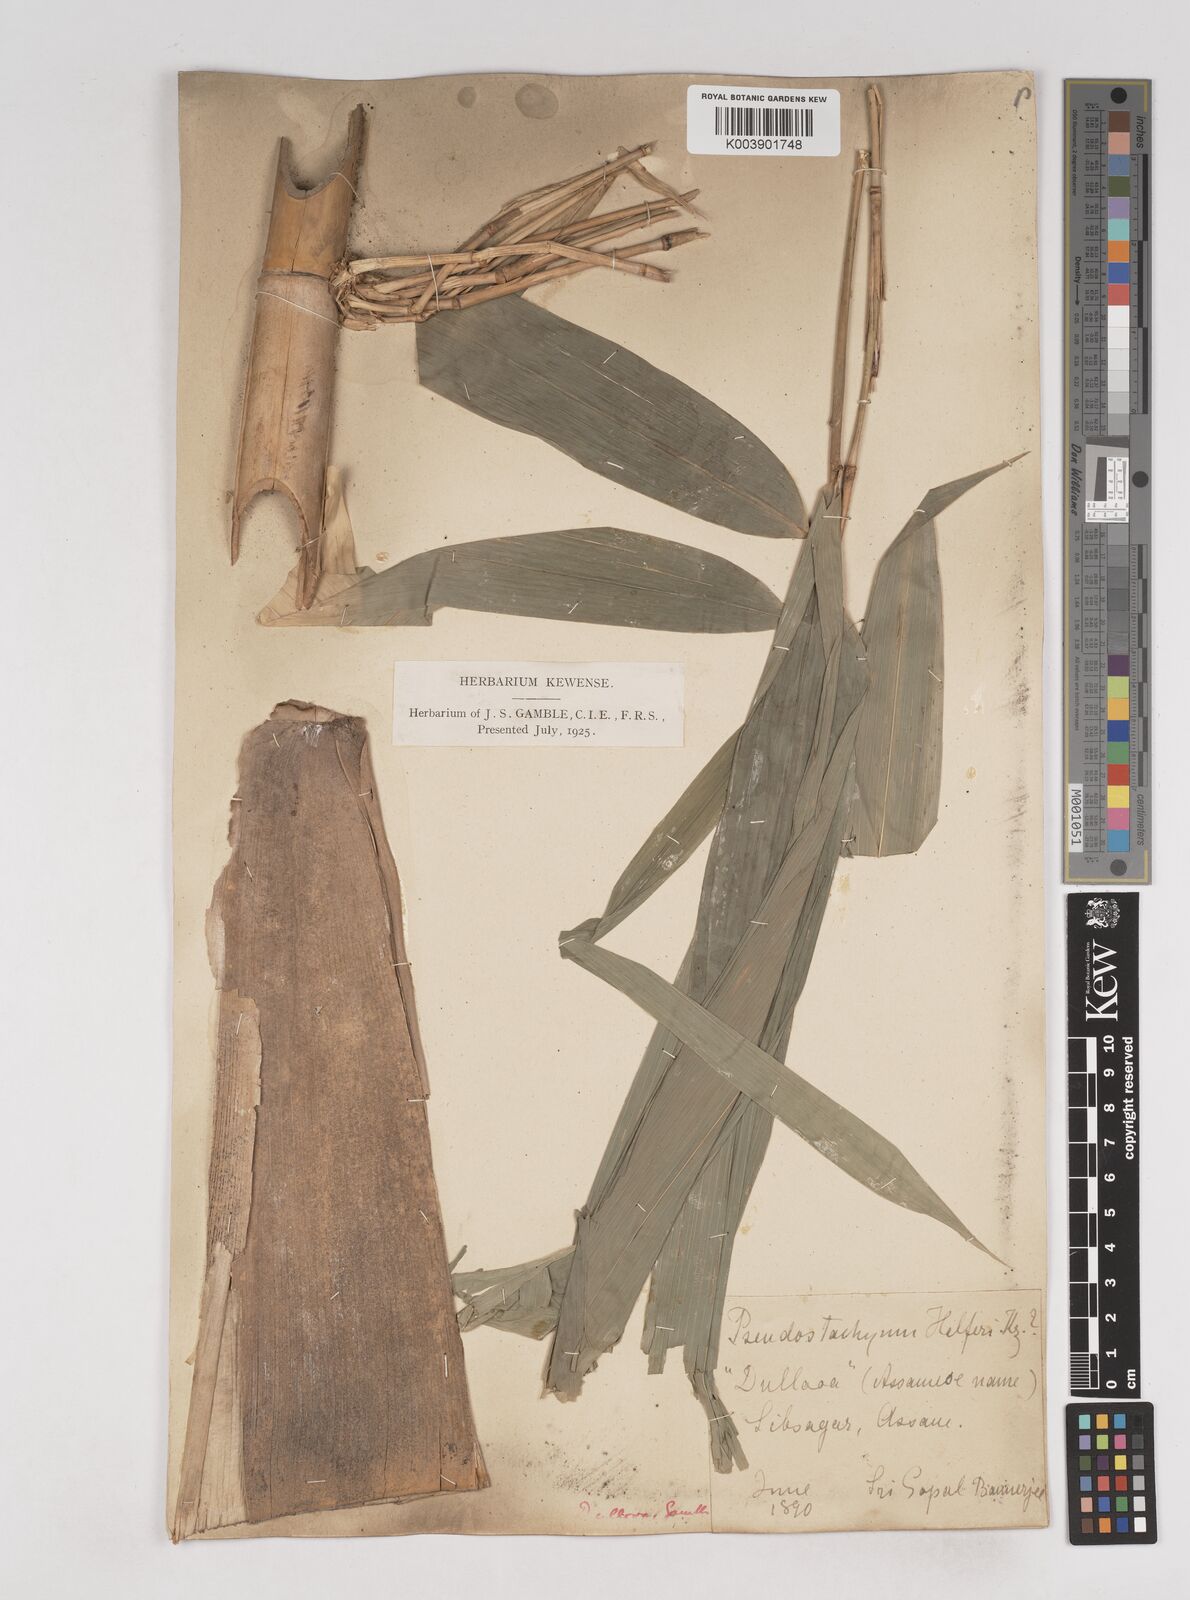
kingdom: Plantae
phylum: Tracheophyta
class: Liliopsida
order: Poales
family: Poaceae
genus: Schizostachyum
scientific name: Schizostachyum dullooa
